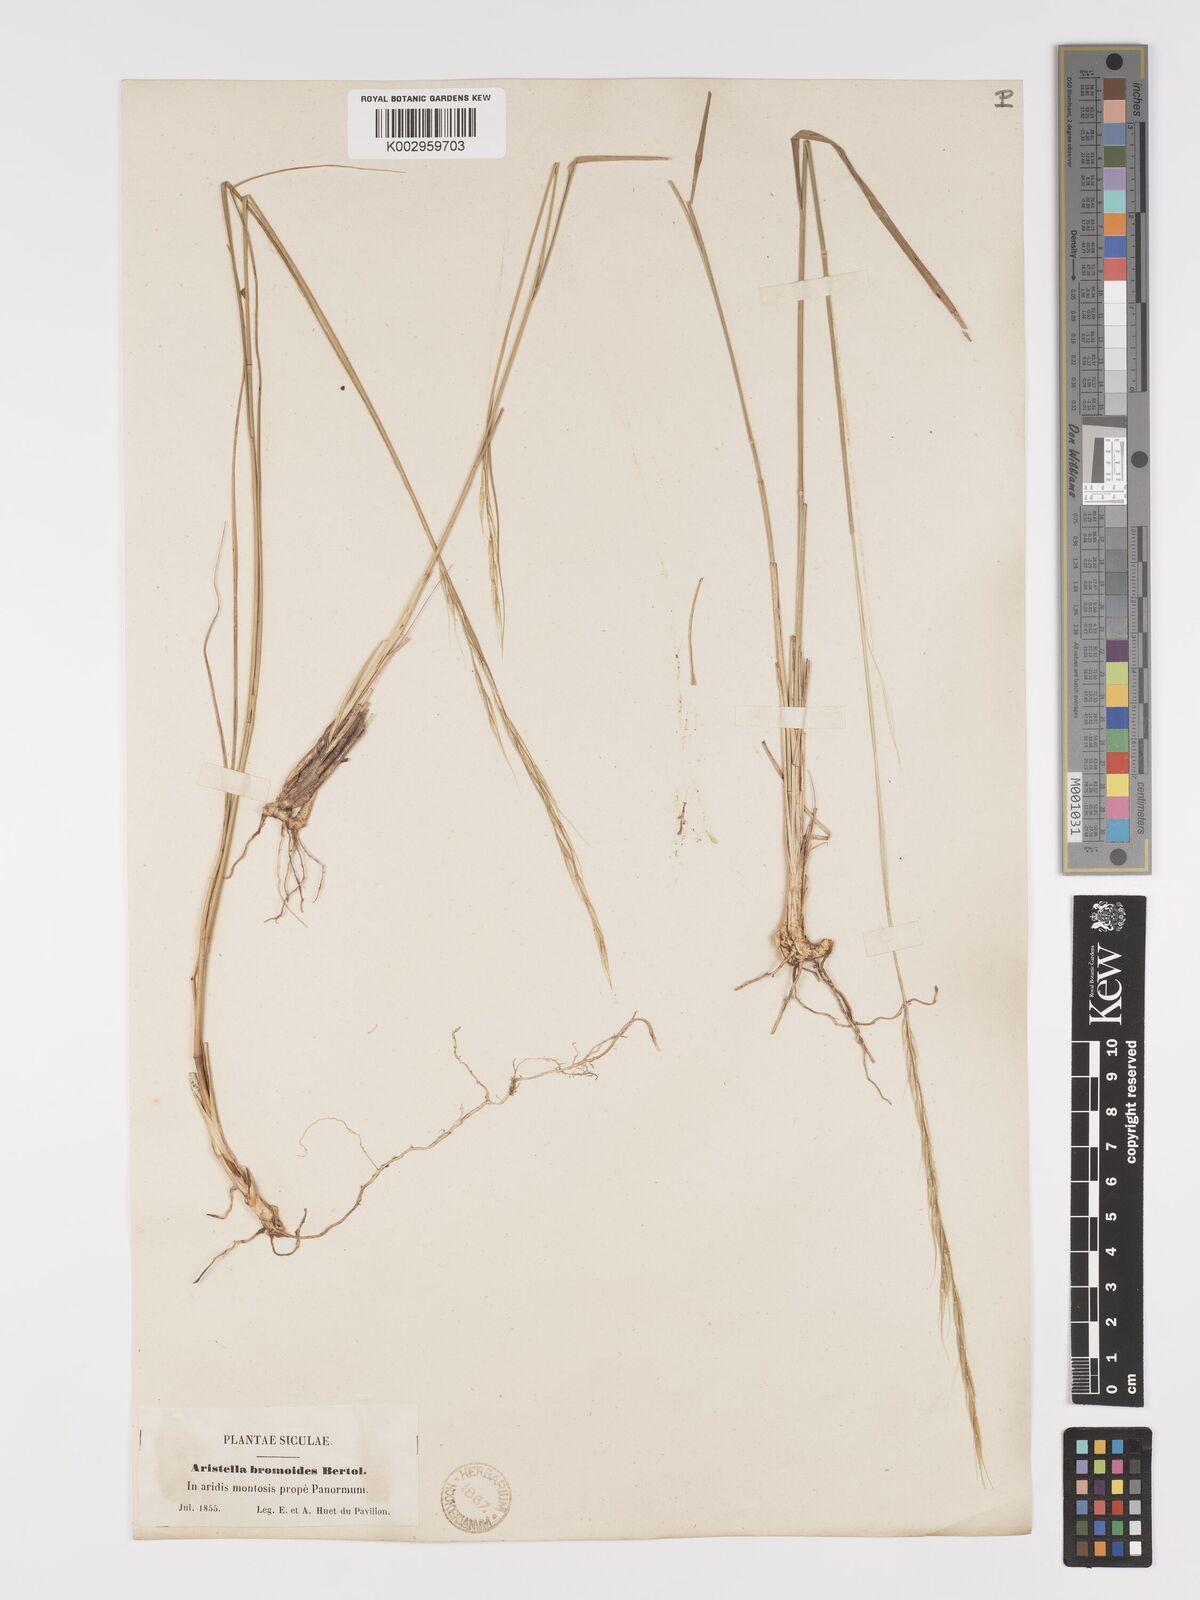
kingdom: Plantae
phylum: Tracheophyta
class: Liliopsida
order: Poales
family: Poaceae
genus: Achnatherum
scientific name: Achnatherum bromoides
